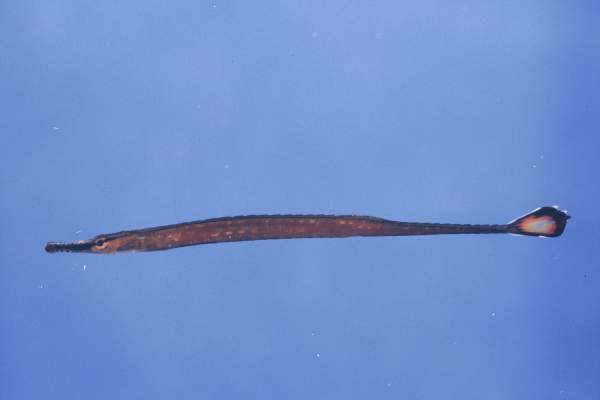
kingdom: Animalia
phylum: Chordata
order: Syngnathiformes
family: Syngnathidae
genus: Doryrhamphus
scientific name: Doryrhamphus bicarinatus
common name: Narrowstripe pipefish
